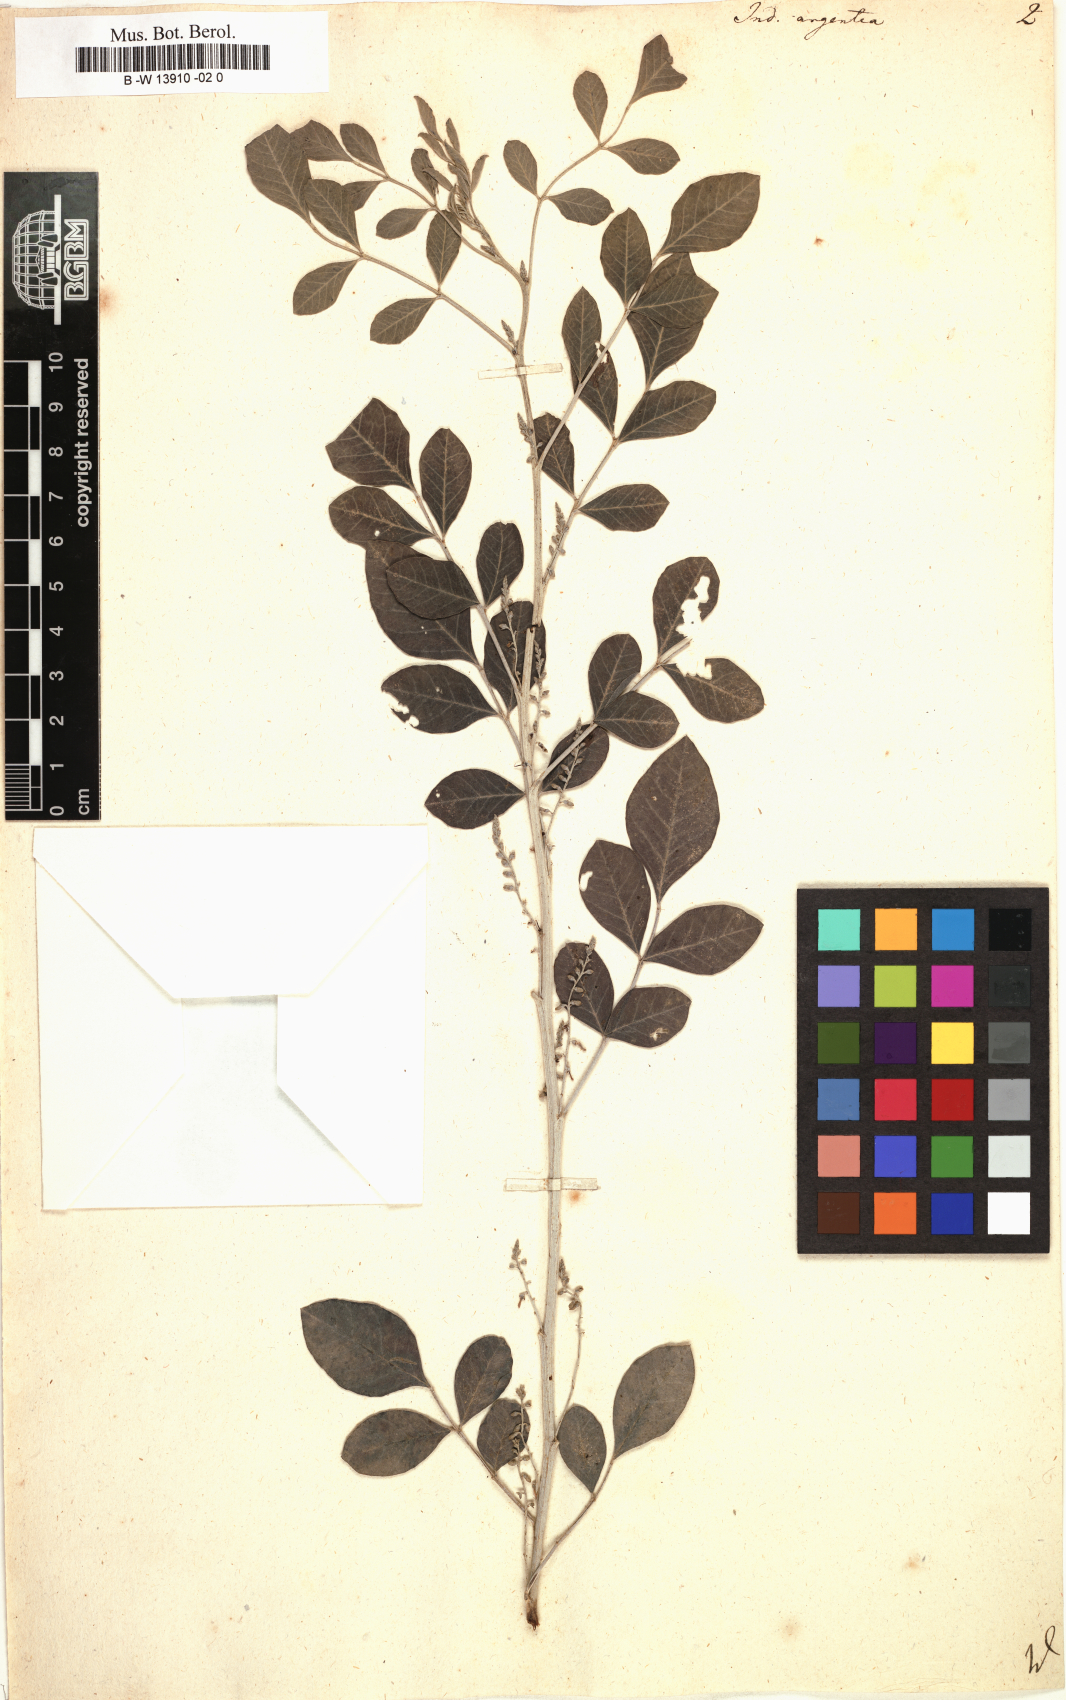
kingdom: Plantae
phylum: Tracheophyta
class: Magnoliopsida
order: Fabales
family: Fabaceae
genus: Indigofera
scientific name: Indigofera argentea
